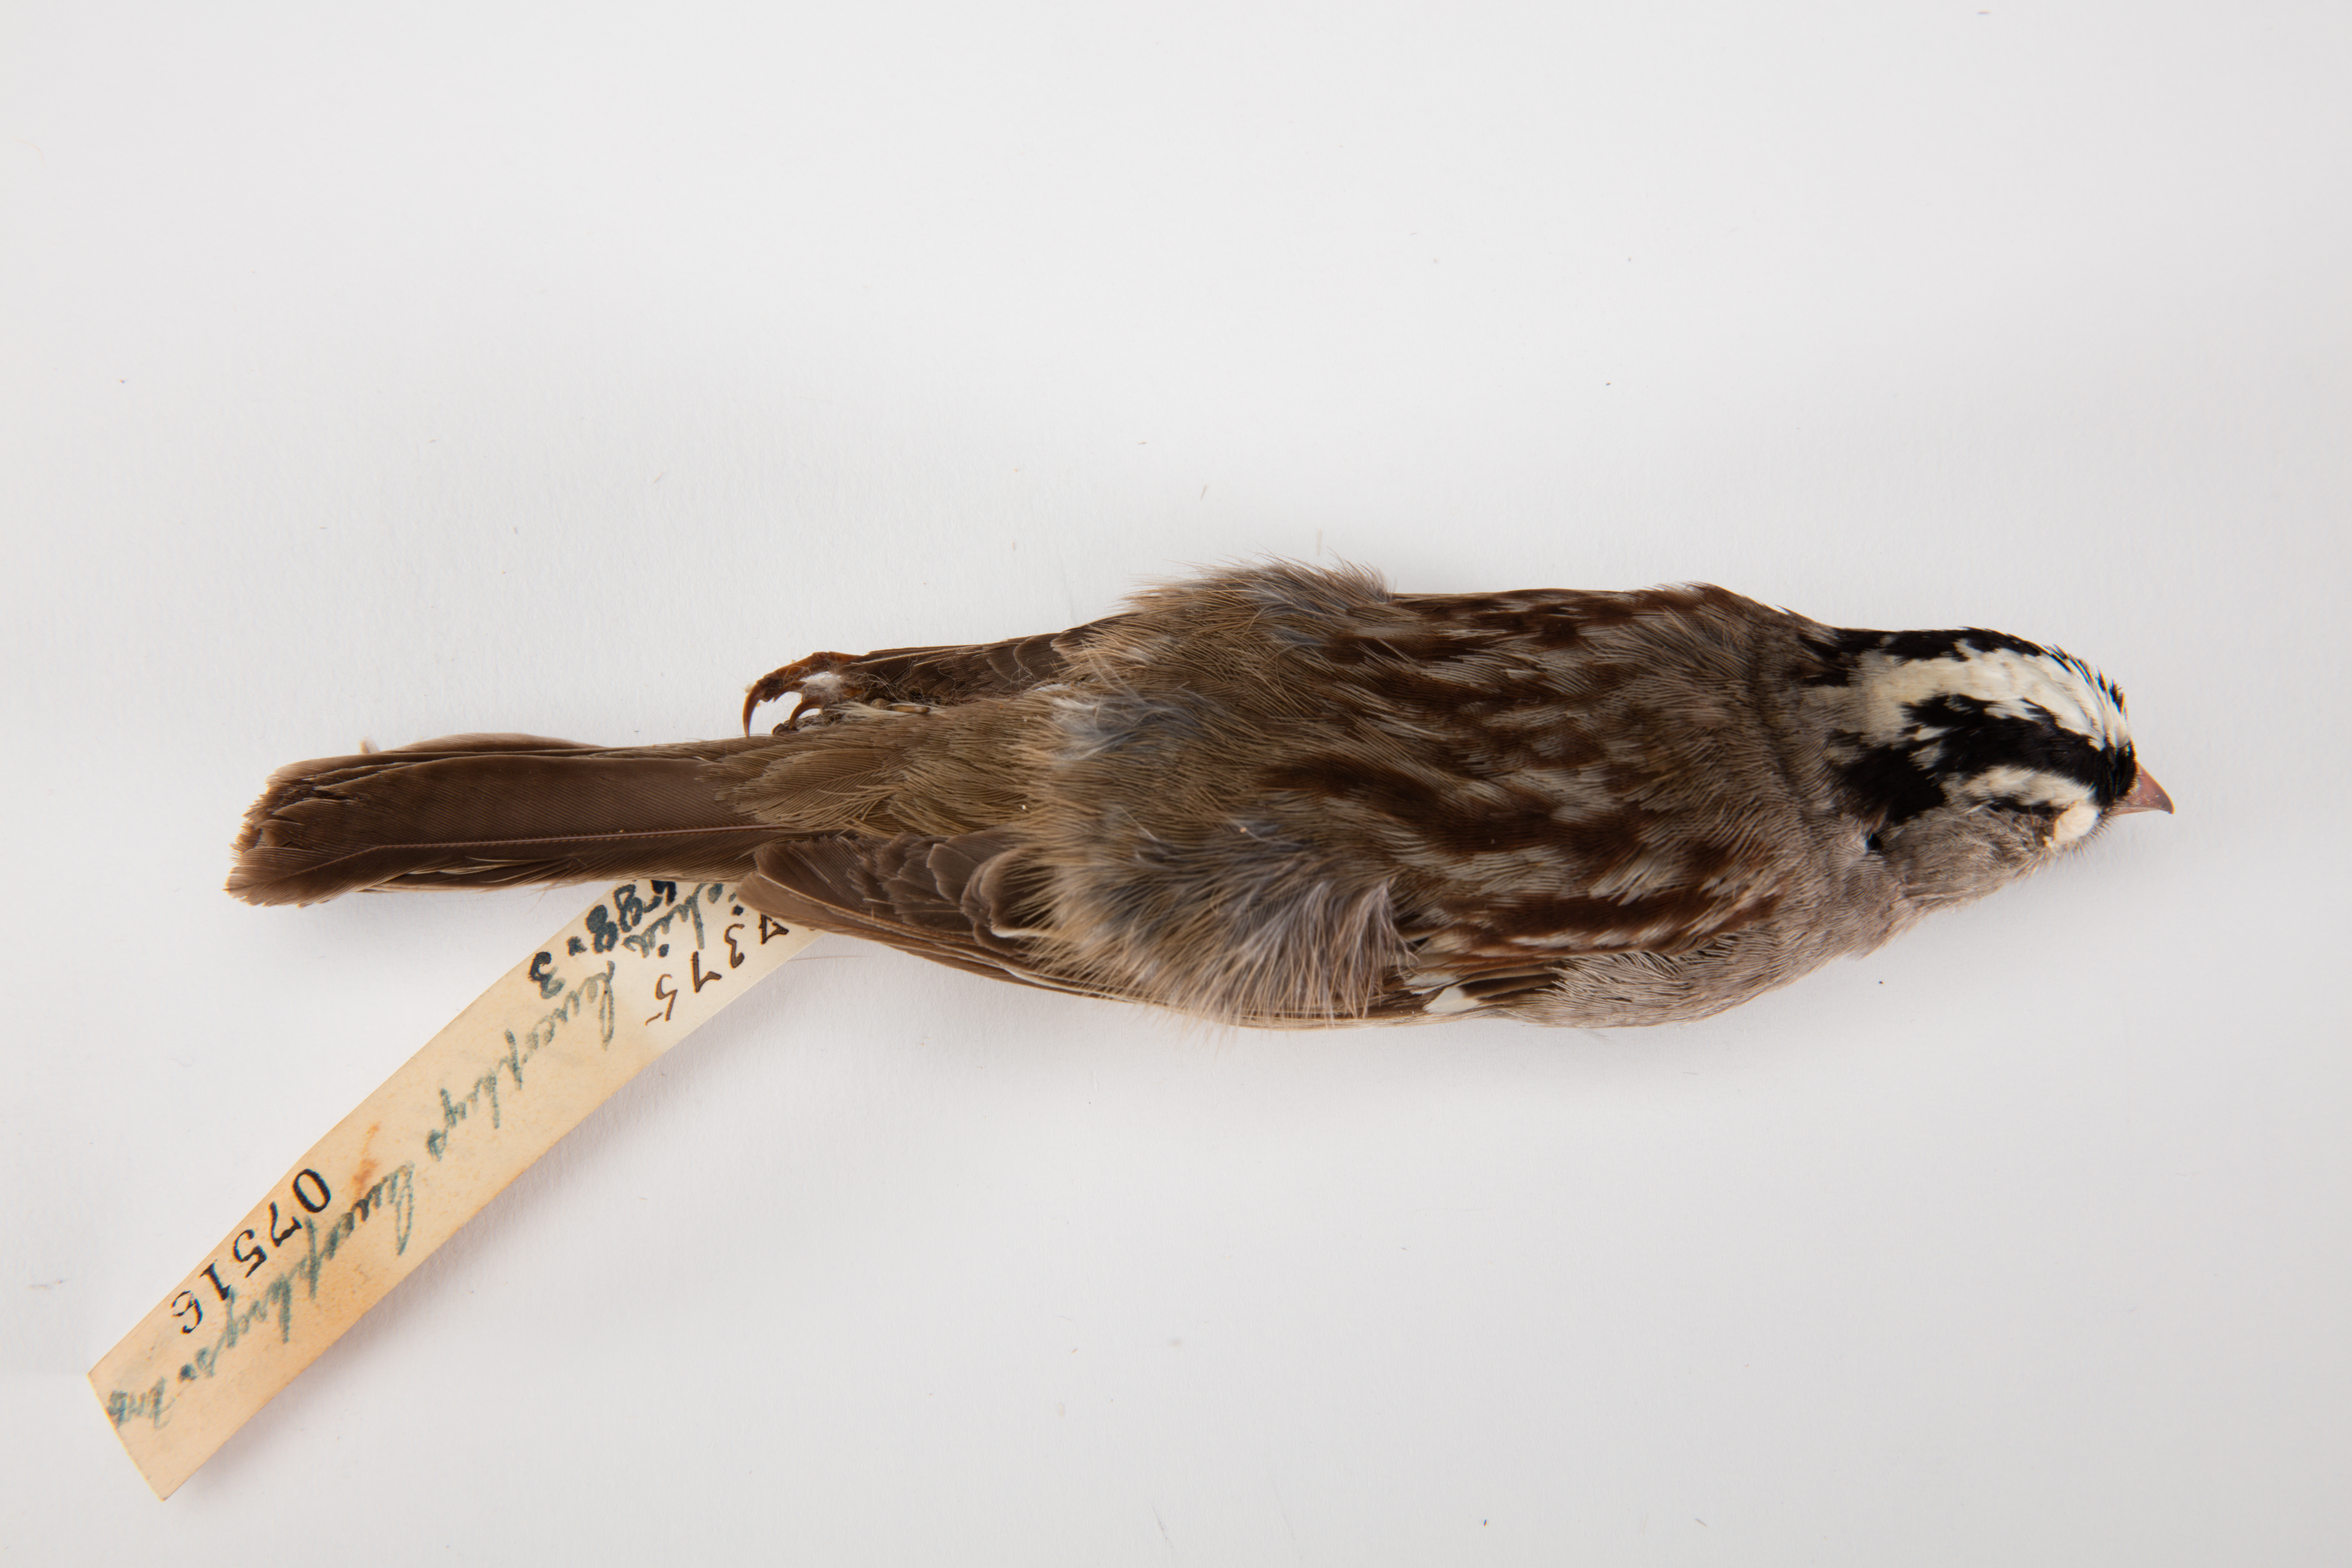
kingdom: Animalia
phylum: Chordata
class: Aves
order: Passeriformes
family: Passerellidae
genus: Zonotrichia
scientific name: Zonotrichia leucophrys
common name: White-crowned sparrow
